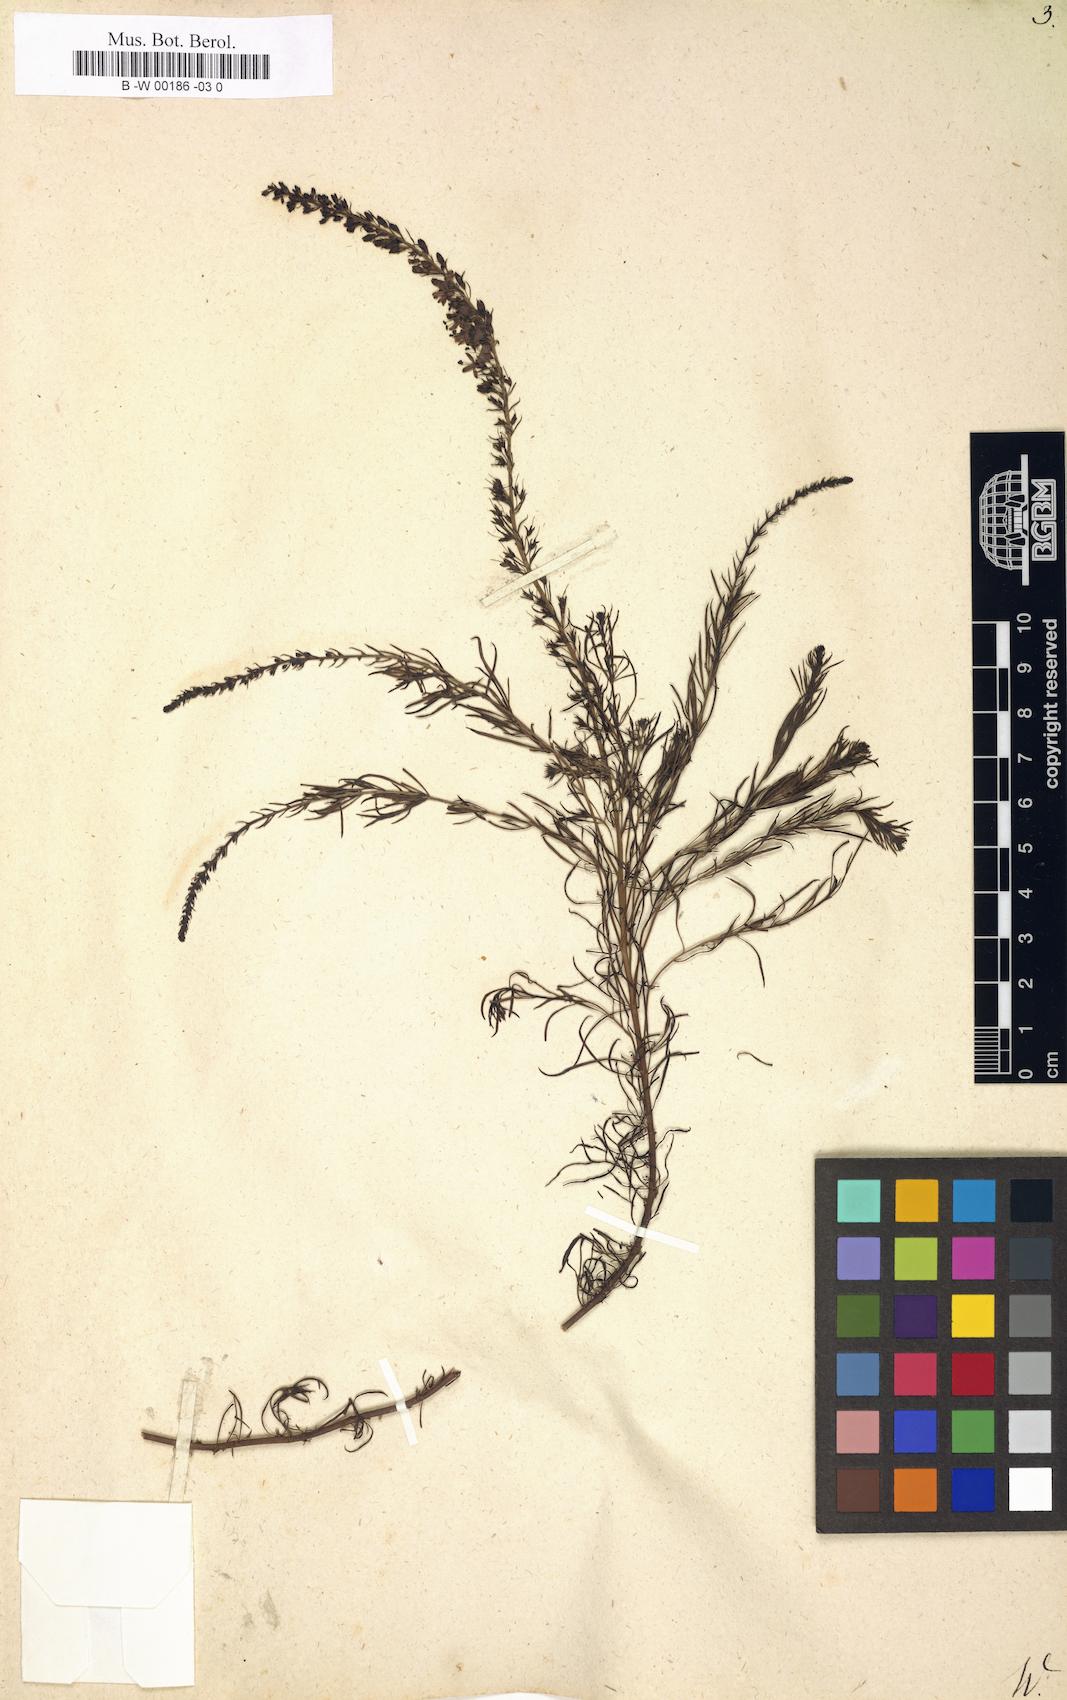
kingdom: Plantae
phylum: Tracheophyta
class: Magnoliopsida
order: Lamiales
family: Plantaginaceae
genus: Veronica
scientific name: Veronica pinnata
